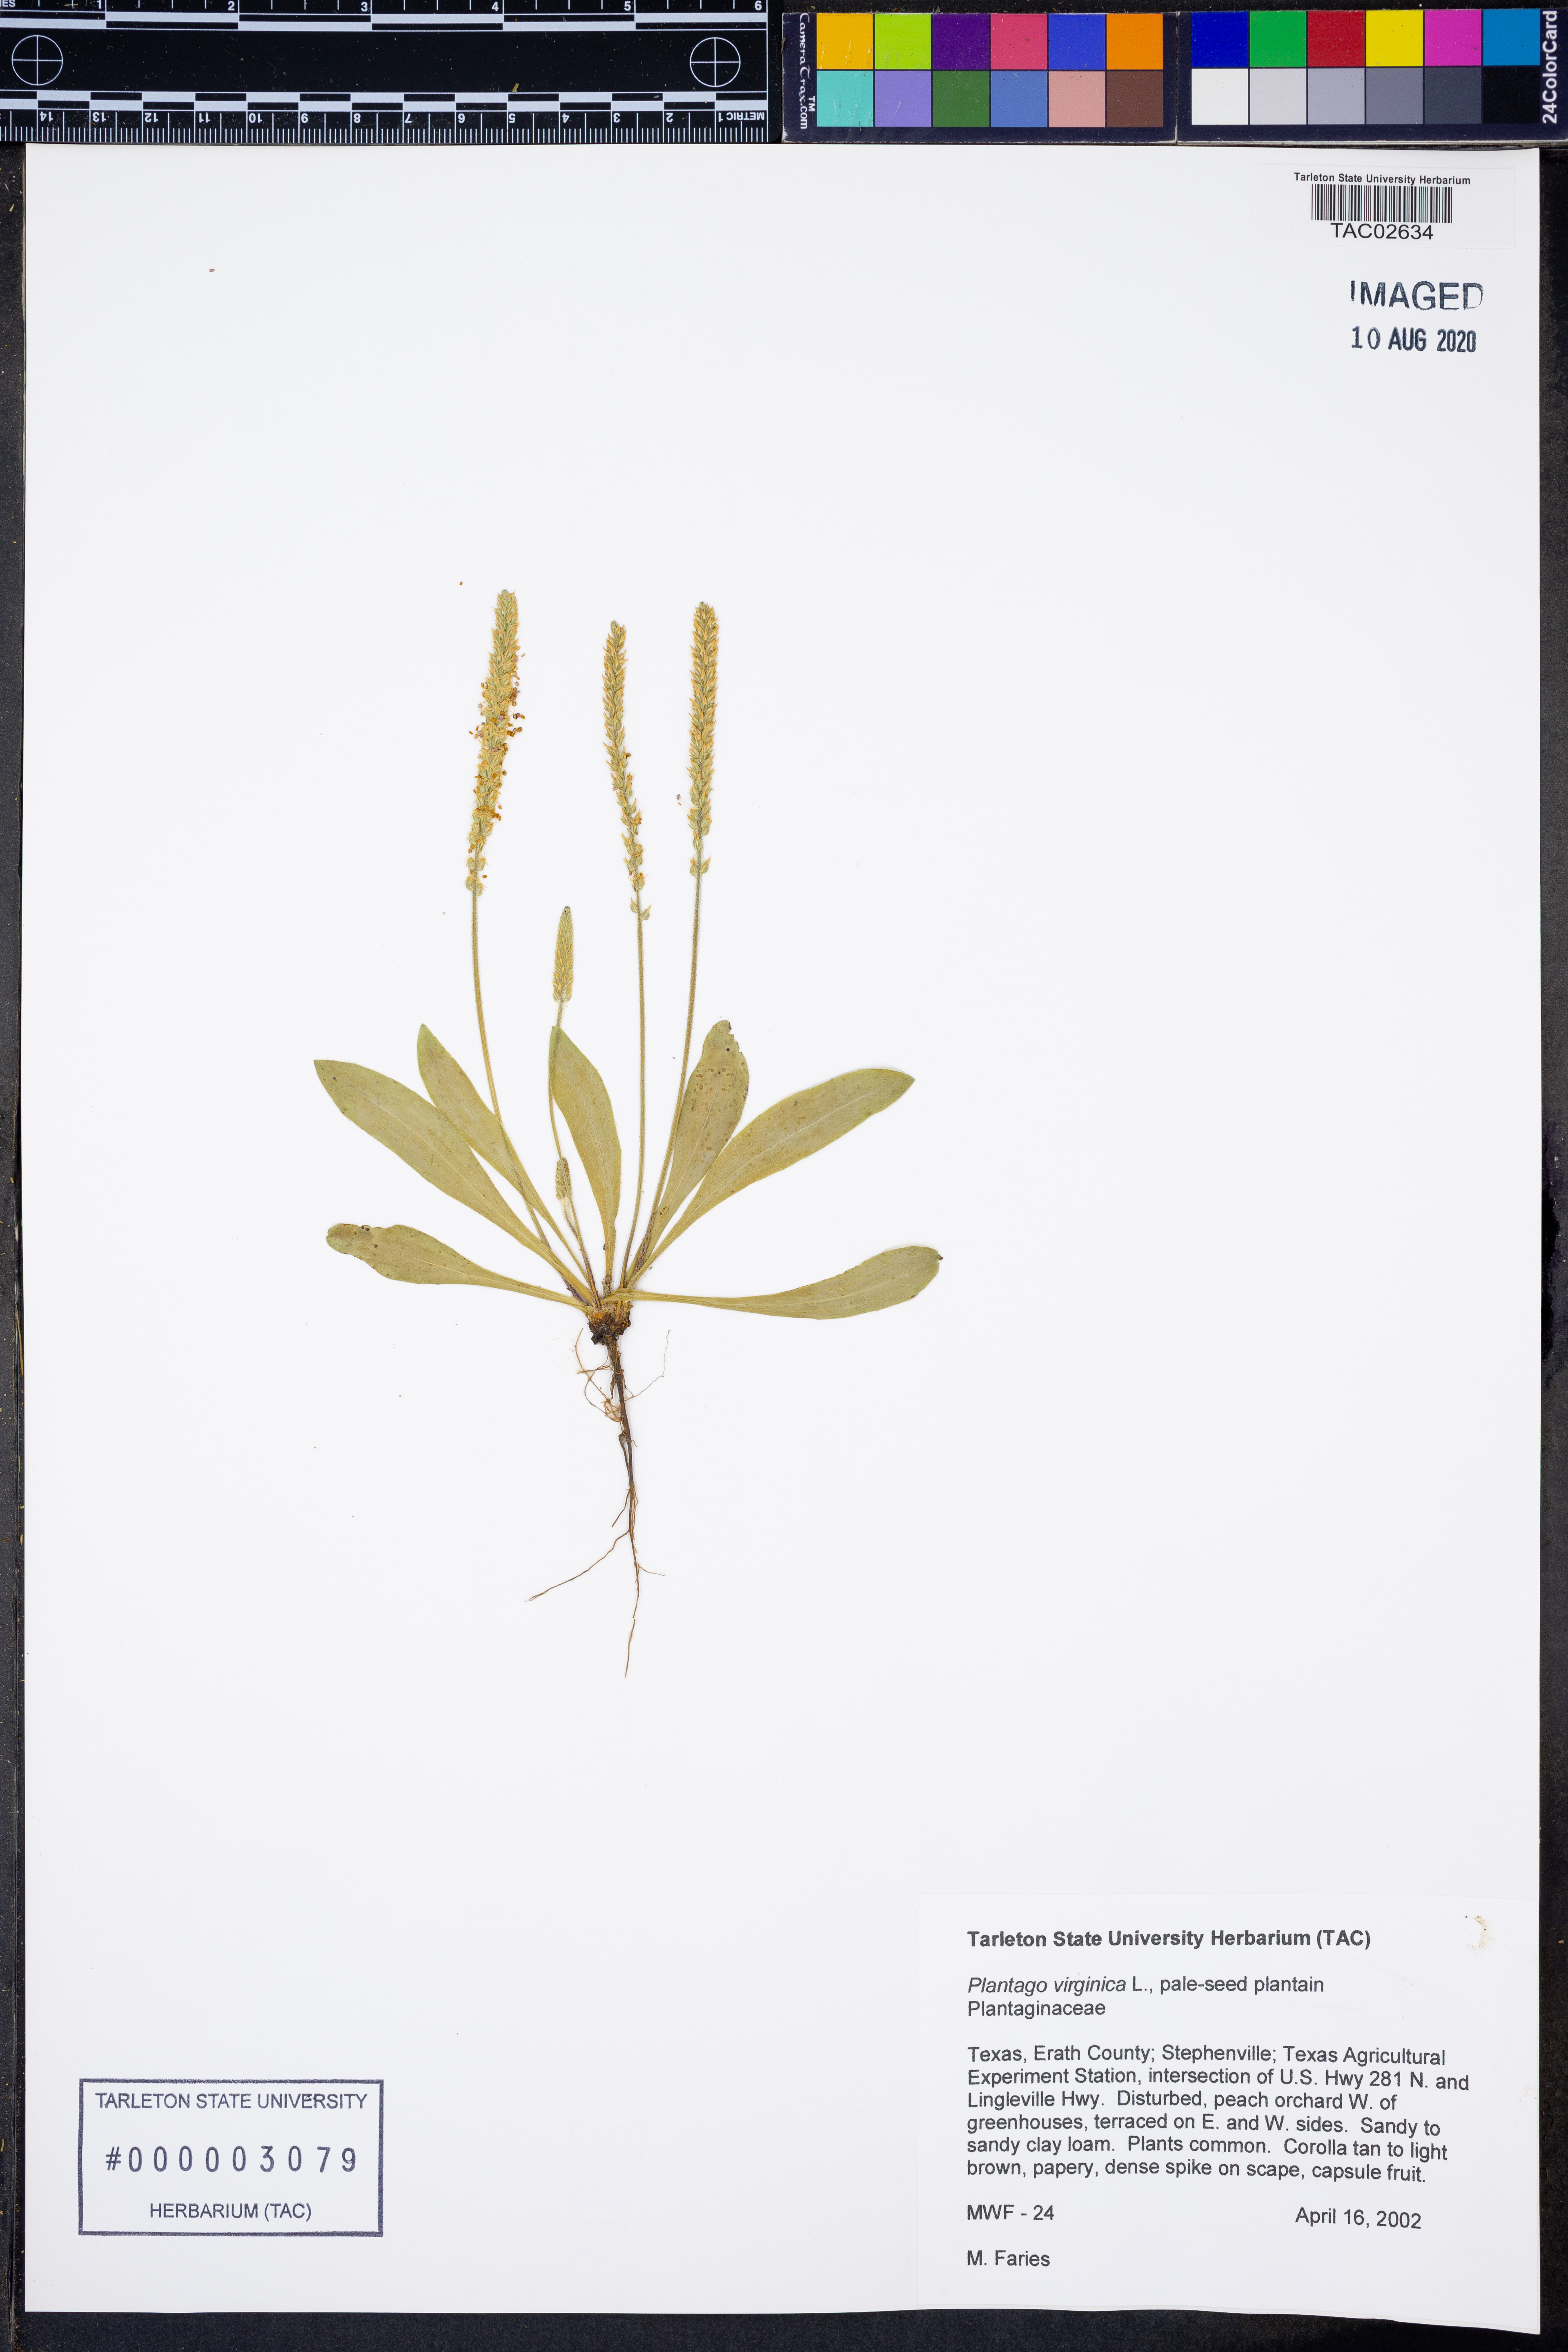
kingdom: Plantae
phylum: Tracheophyta
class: Magnoliopsida
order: Lamiales
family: Plantaginaceae
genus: Plantago
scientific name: Plantago virginica
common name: Hoary plantain
